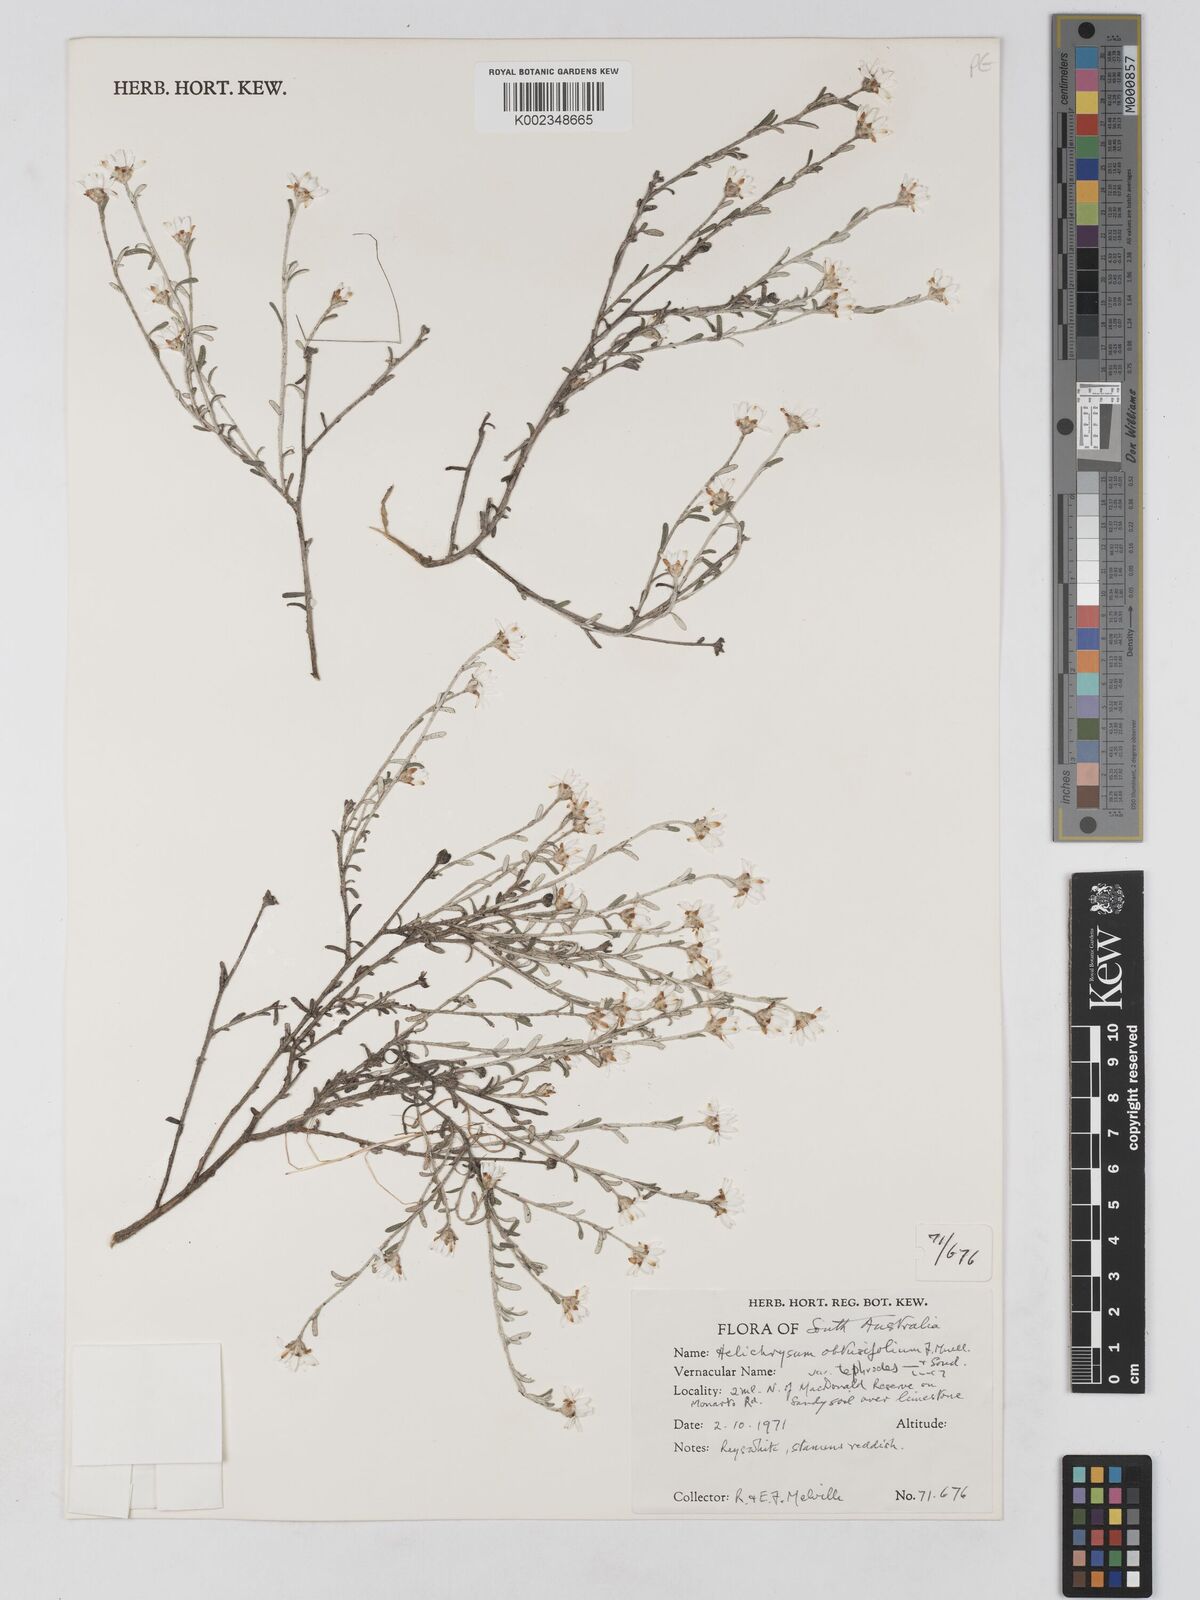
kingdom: Plantae
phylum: Tracheophyta
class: Magnoliopsida
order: Asterales
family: Asteraceae
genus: Argentipallium
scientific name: Argentipallium
